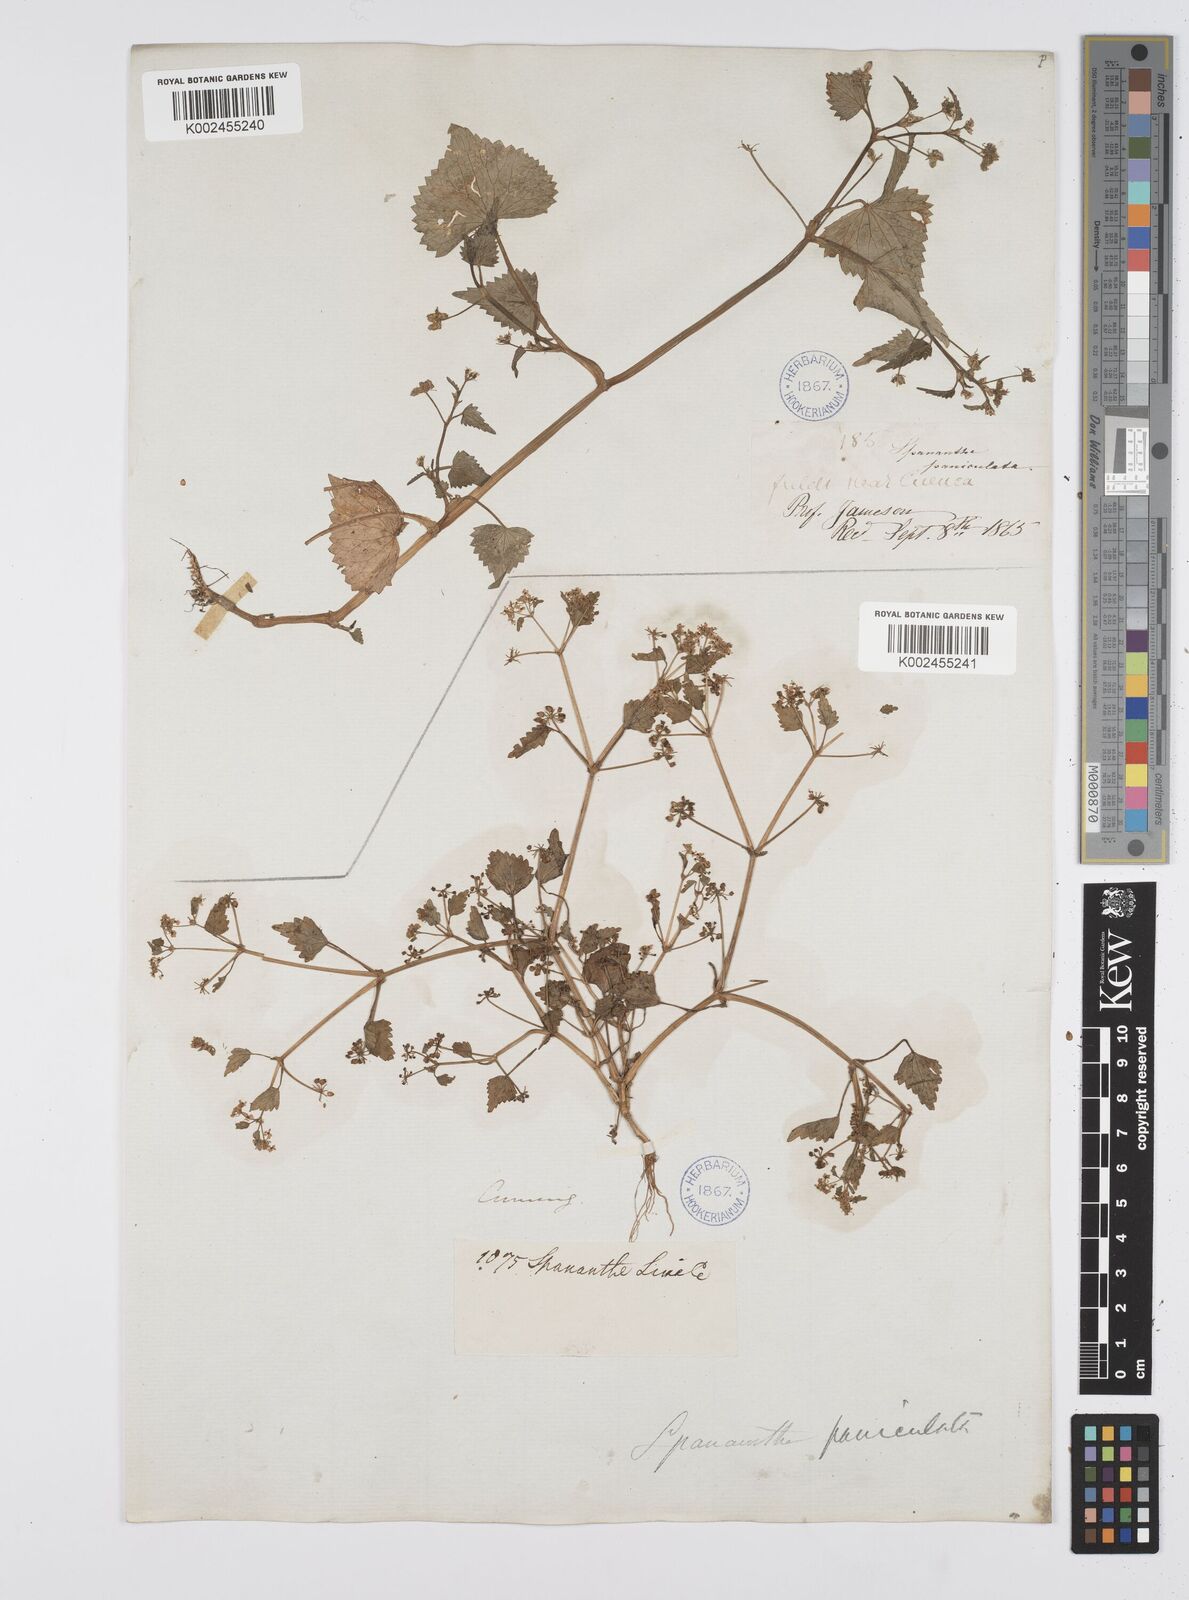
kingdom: Plantae
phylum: Tracheophyta
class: Magnoliopsida
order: Apiales
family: Apiaceae
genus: Azorella
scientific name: Azorella
